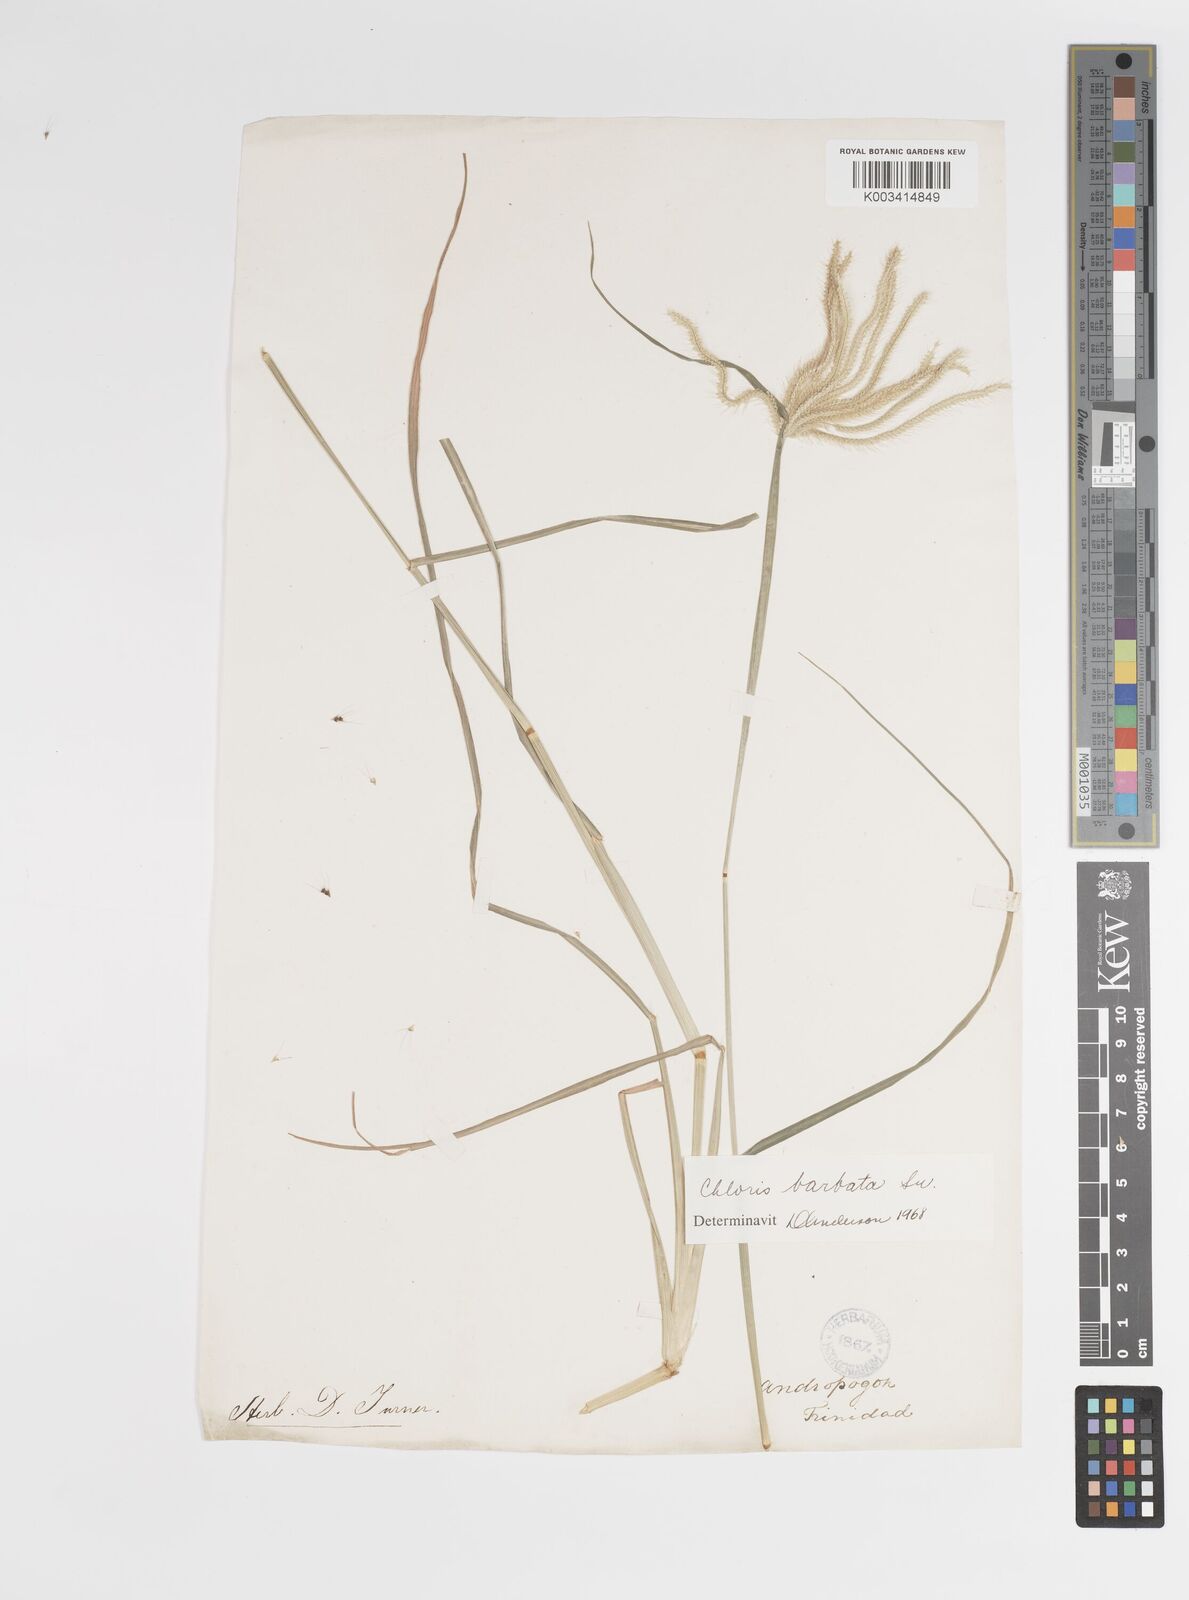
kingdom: Plantae
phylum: Tracheophyta
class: Liliopsida
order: Poales
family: Poaceae
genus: Chloris
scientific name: Chloris barbata
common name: Swollen fingergrass
